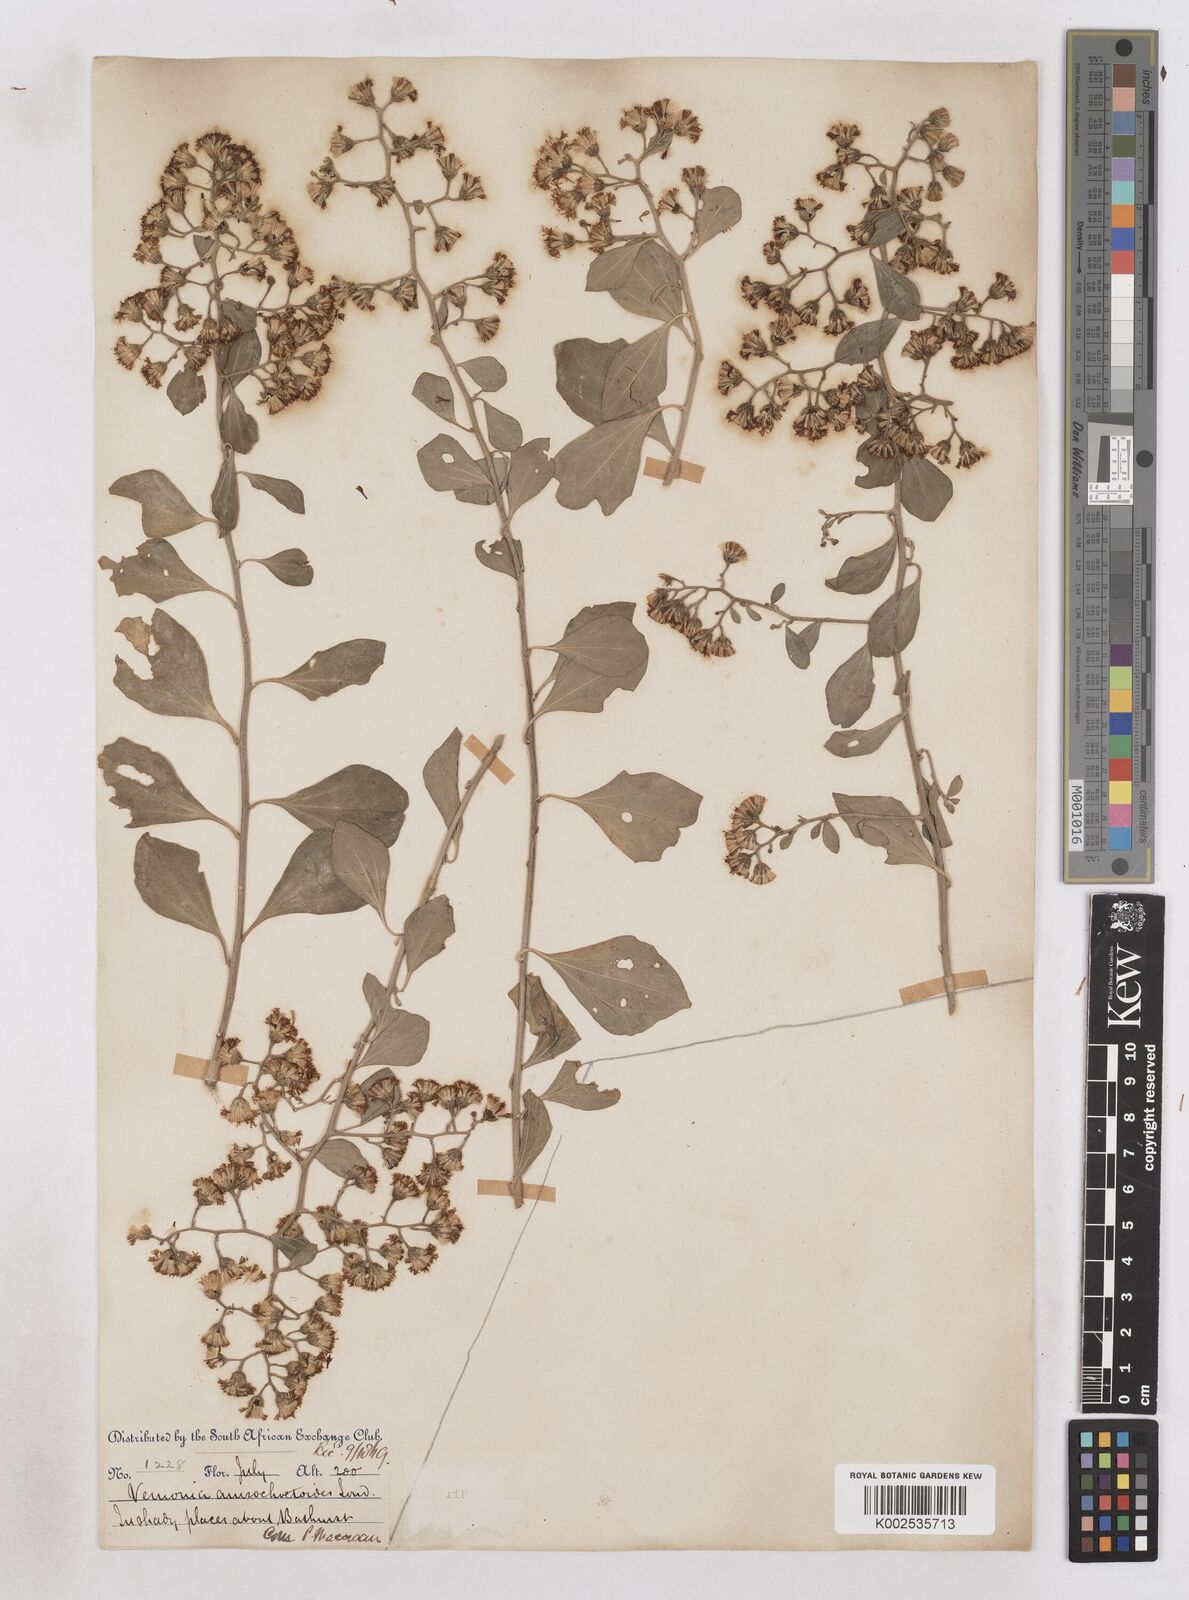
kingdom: Plantae
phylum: Tracheophyta
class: Magnoliopsida
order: Asterales
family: Asteraceae
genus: Distephanus
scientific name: Distephanus anisochaetoides
